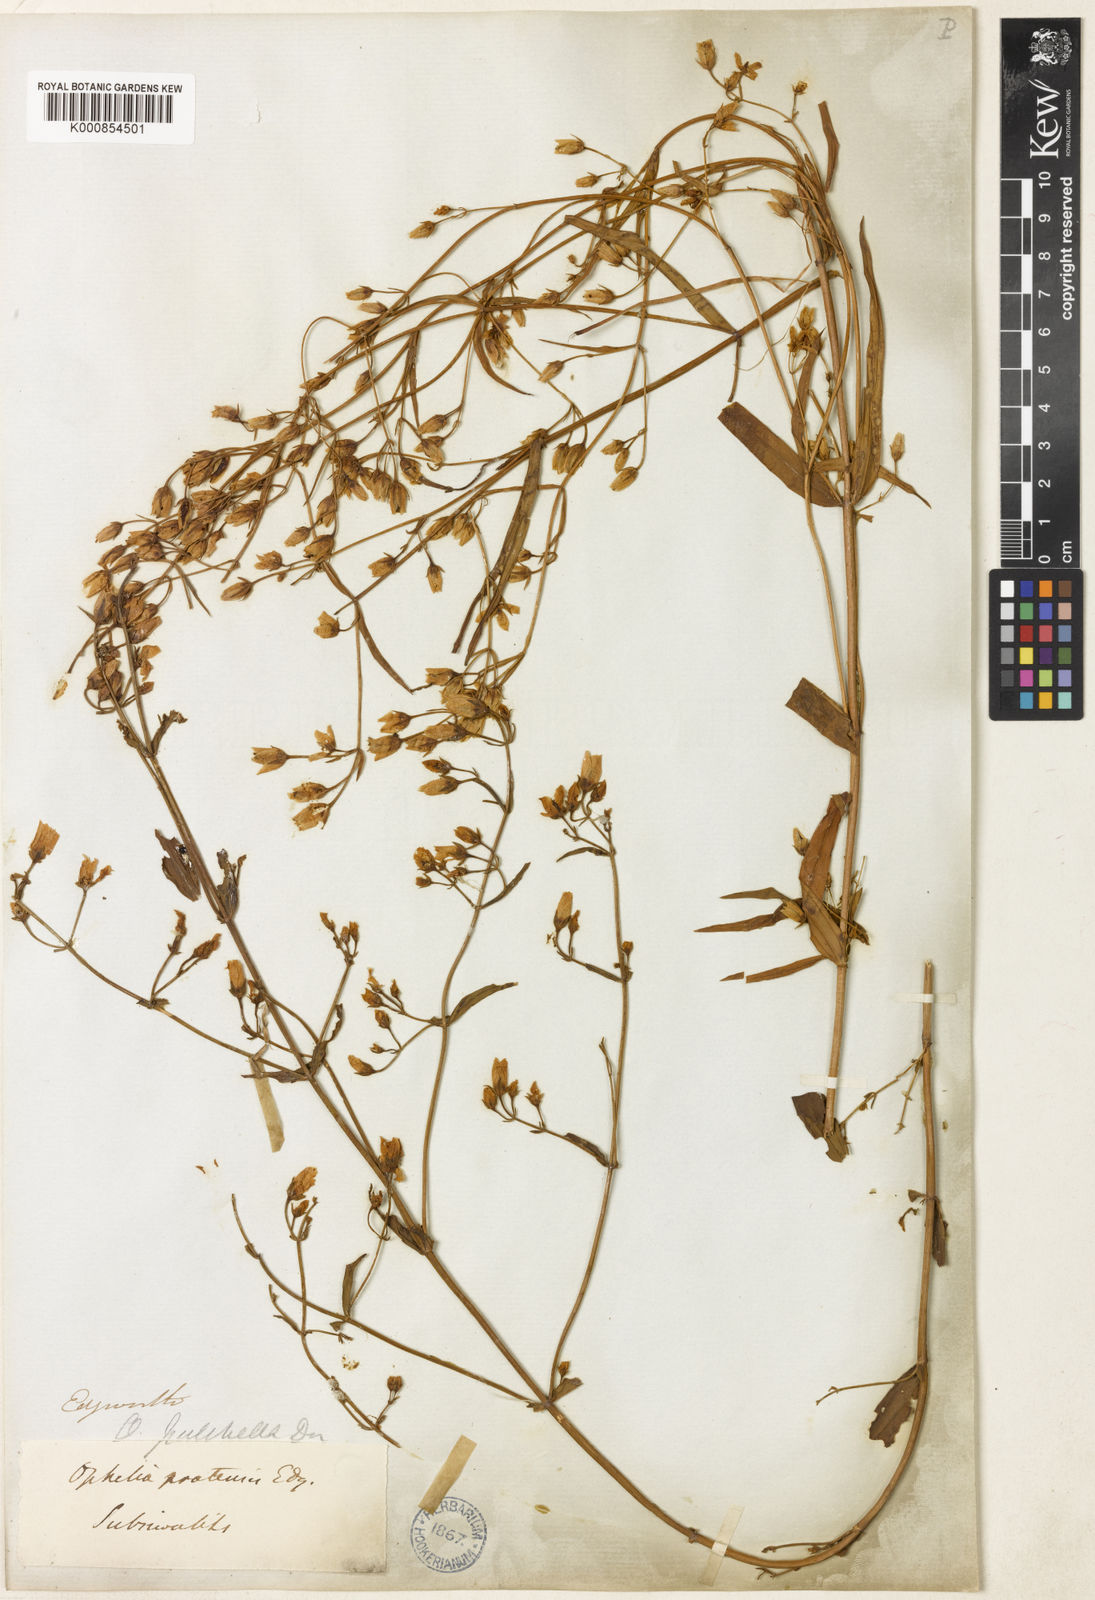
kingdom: Plantae
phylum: Tracheophyta
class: Magnoliopsida
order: Gentianales
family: Gentianaceae
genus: Swertia
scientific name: Swertia
